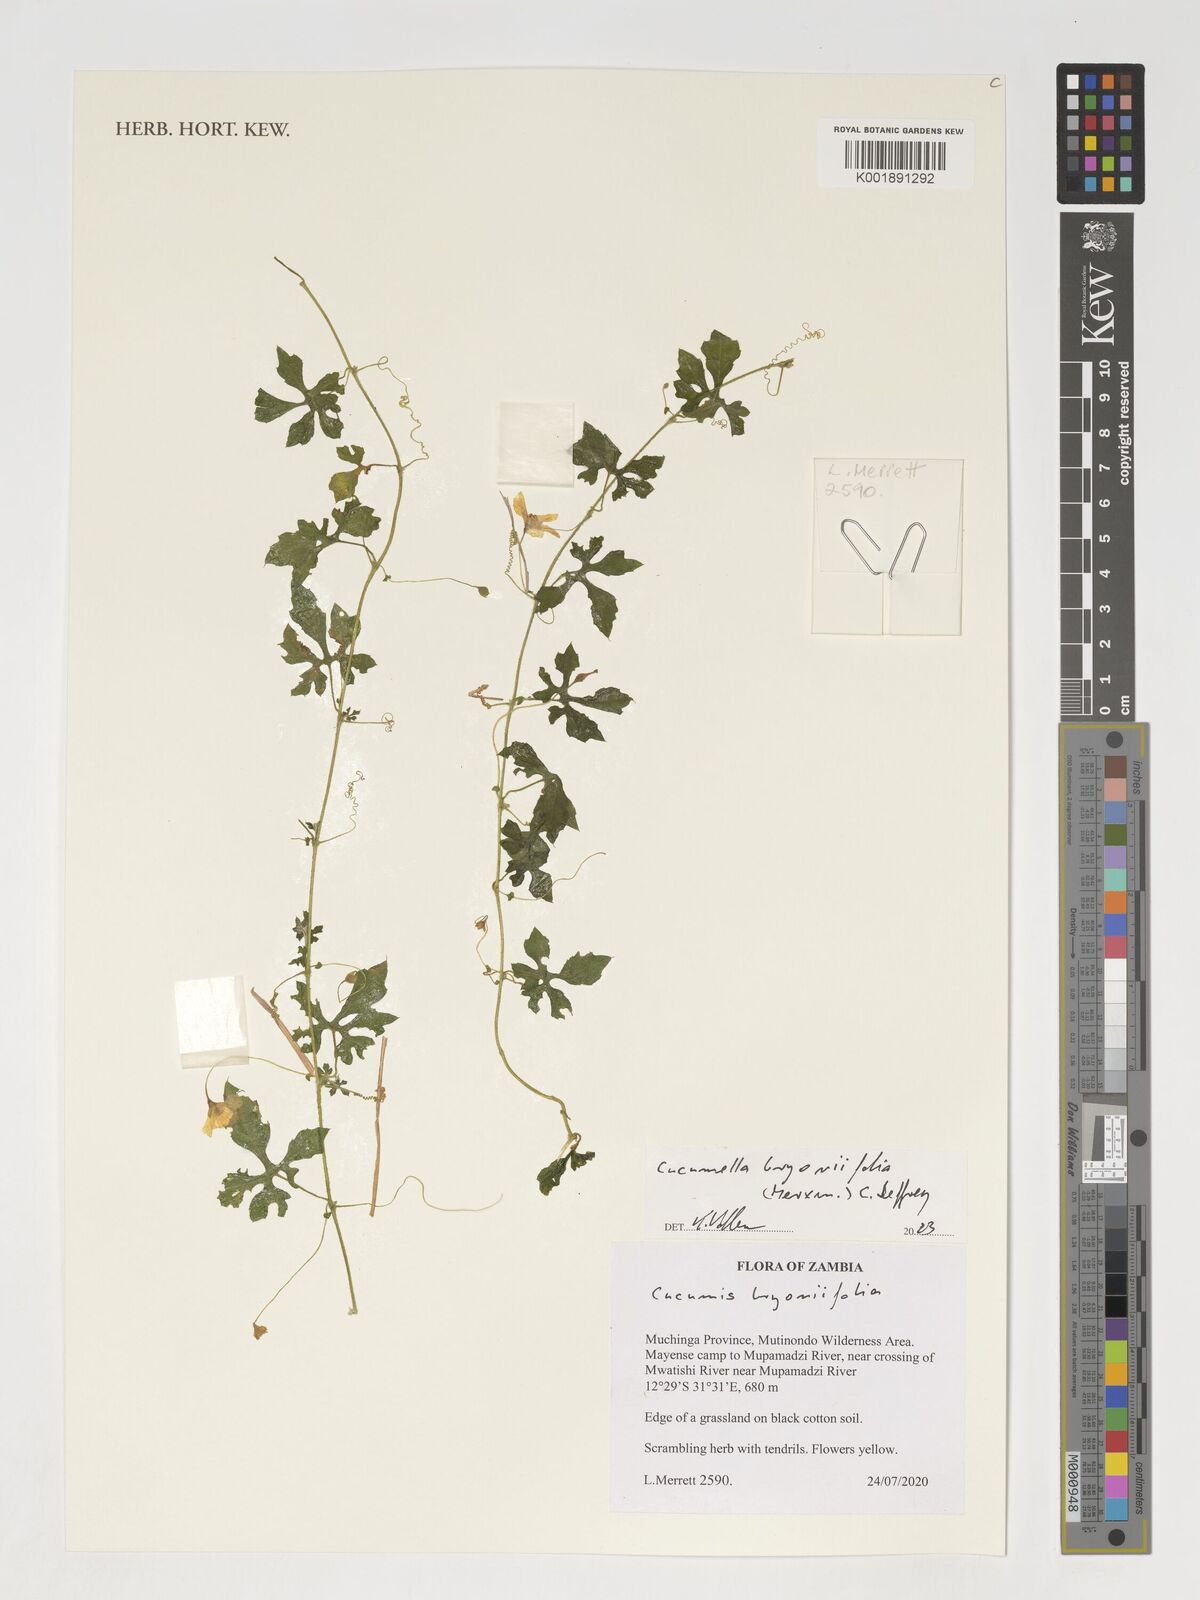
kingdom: Plantae
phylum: Tracheophyta
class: Magnoliopsida
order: Cucurbitales
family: Cucurbitaceae
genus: Cucumis
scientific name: Cucumis bryoniifolius
